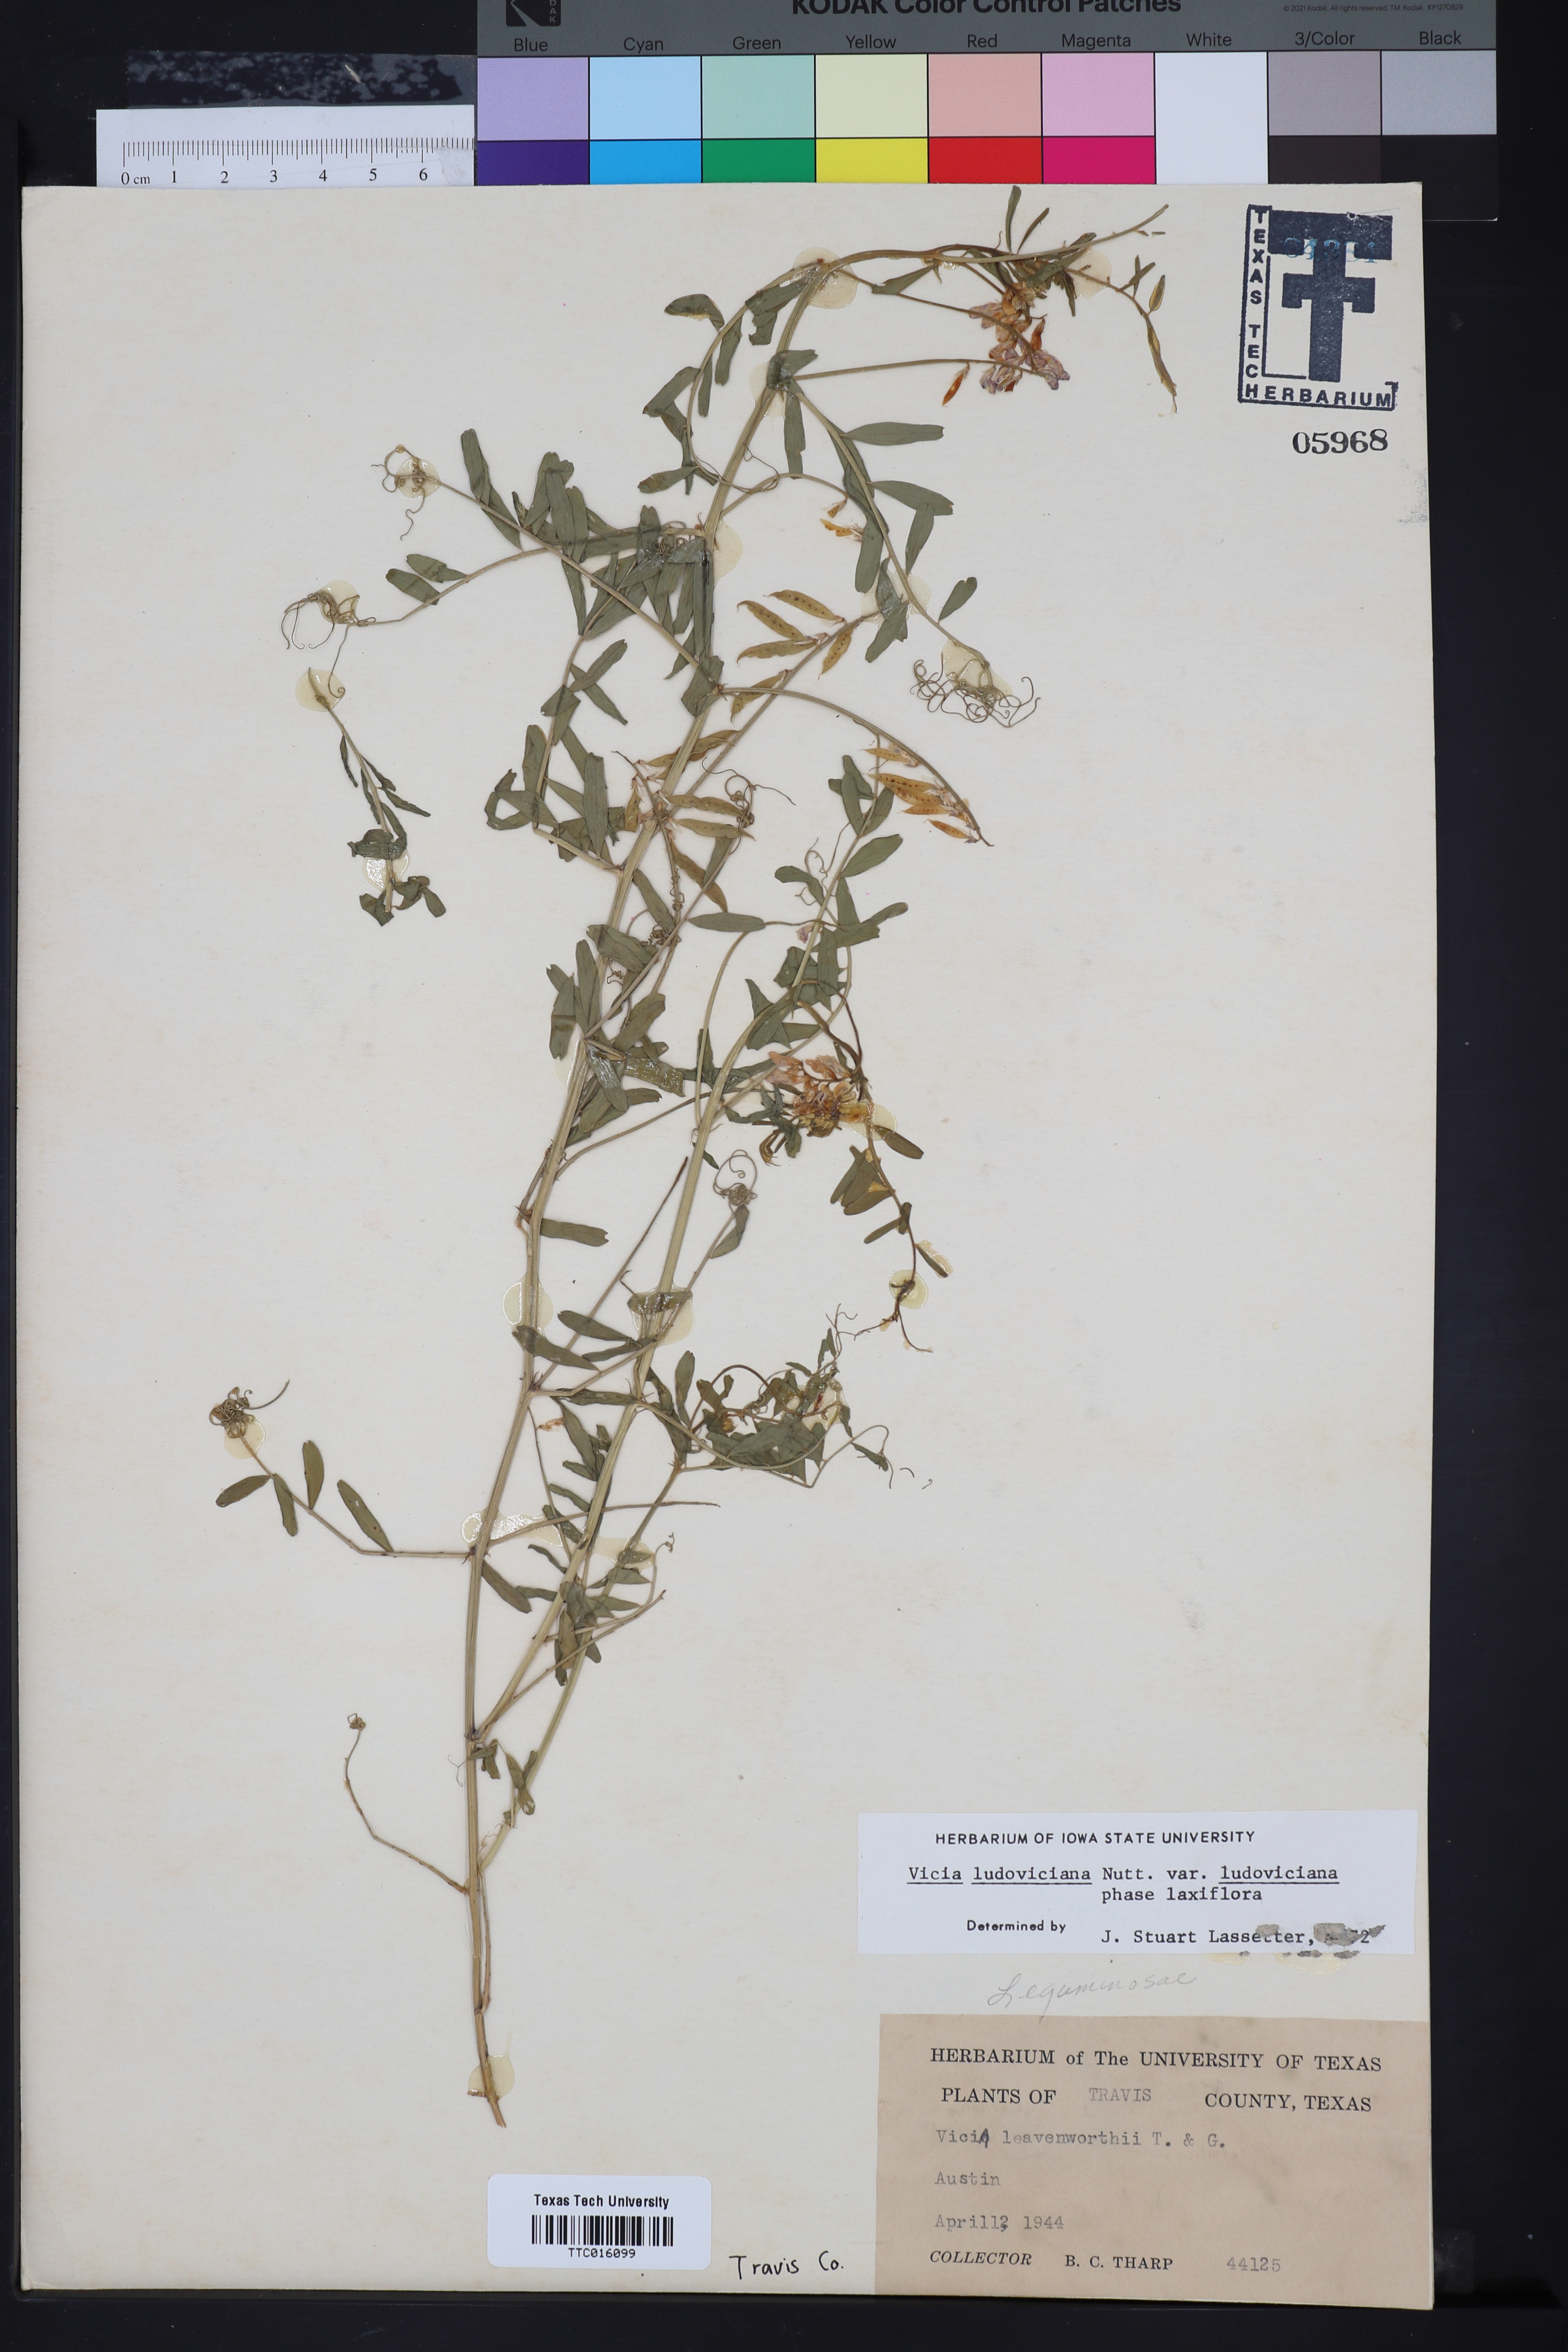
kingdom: Plantae
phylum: Tracheophyta
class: Magnoliopsida
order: Fabales
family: Fabaceae
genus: Vicia
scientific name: Vicia ludoviciana
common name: Louisiana vetch
